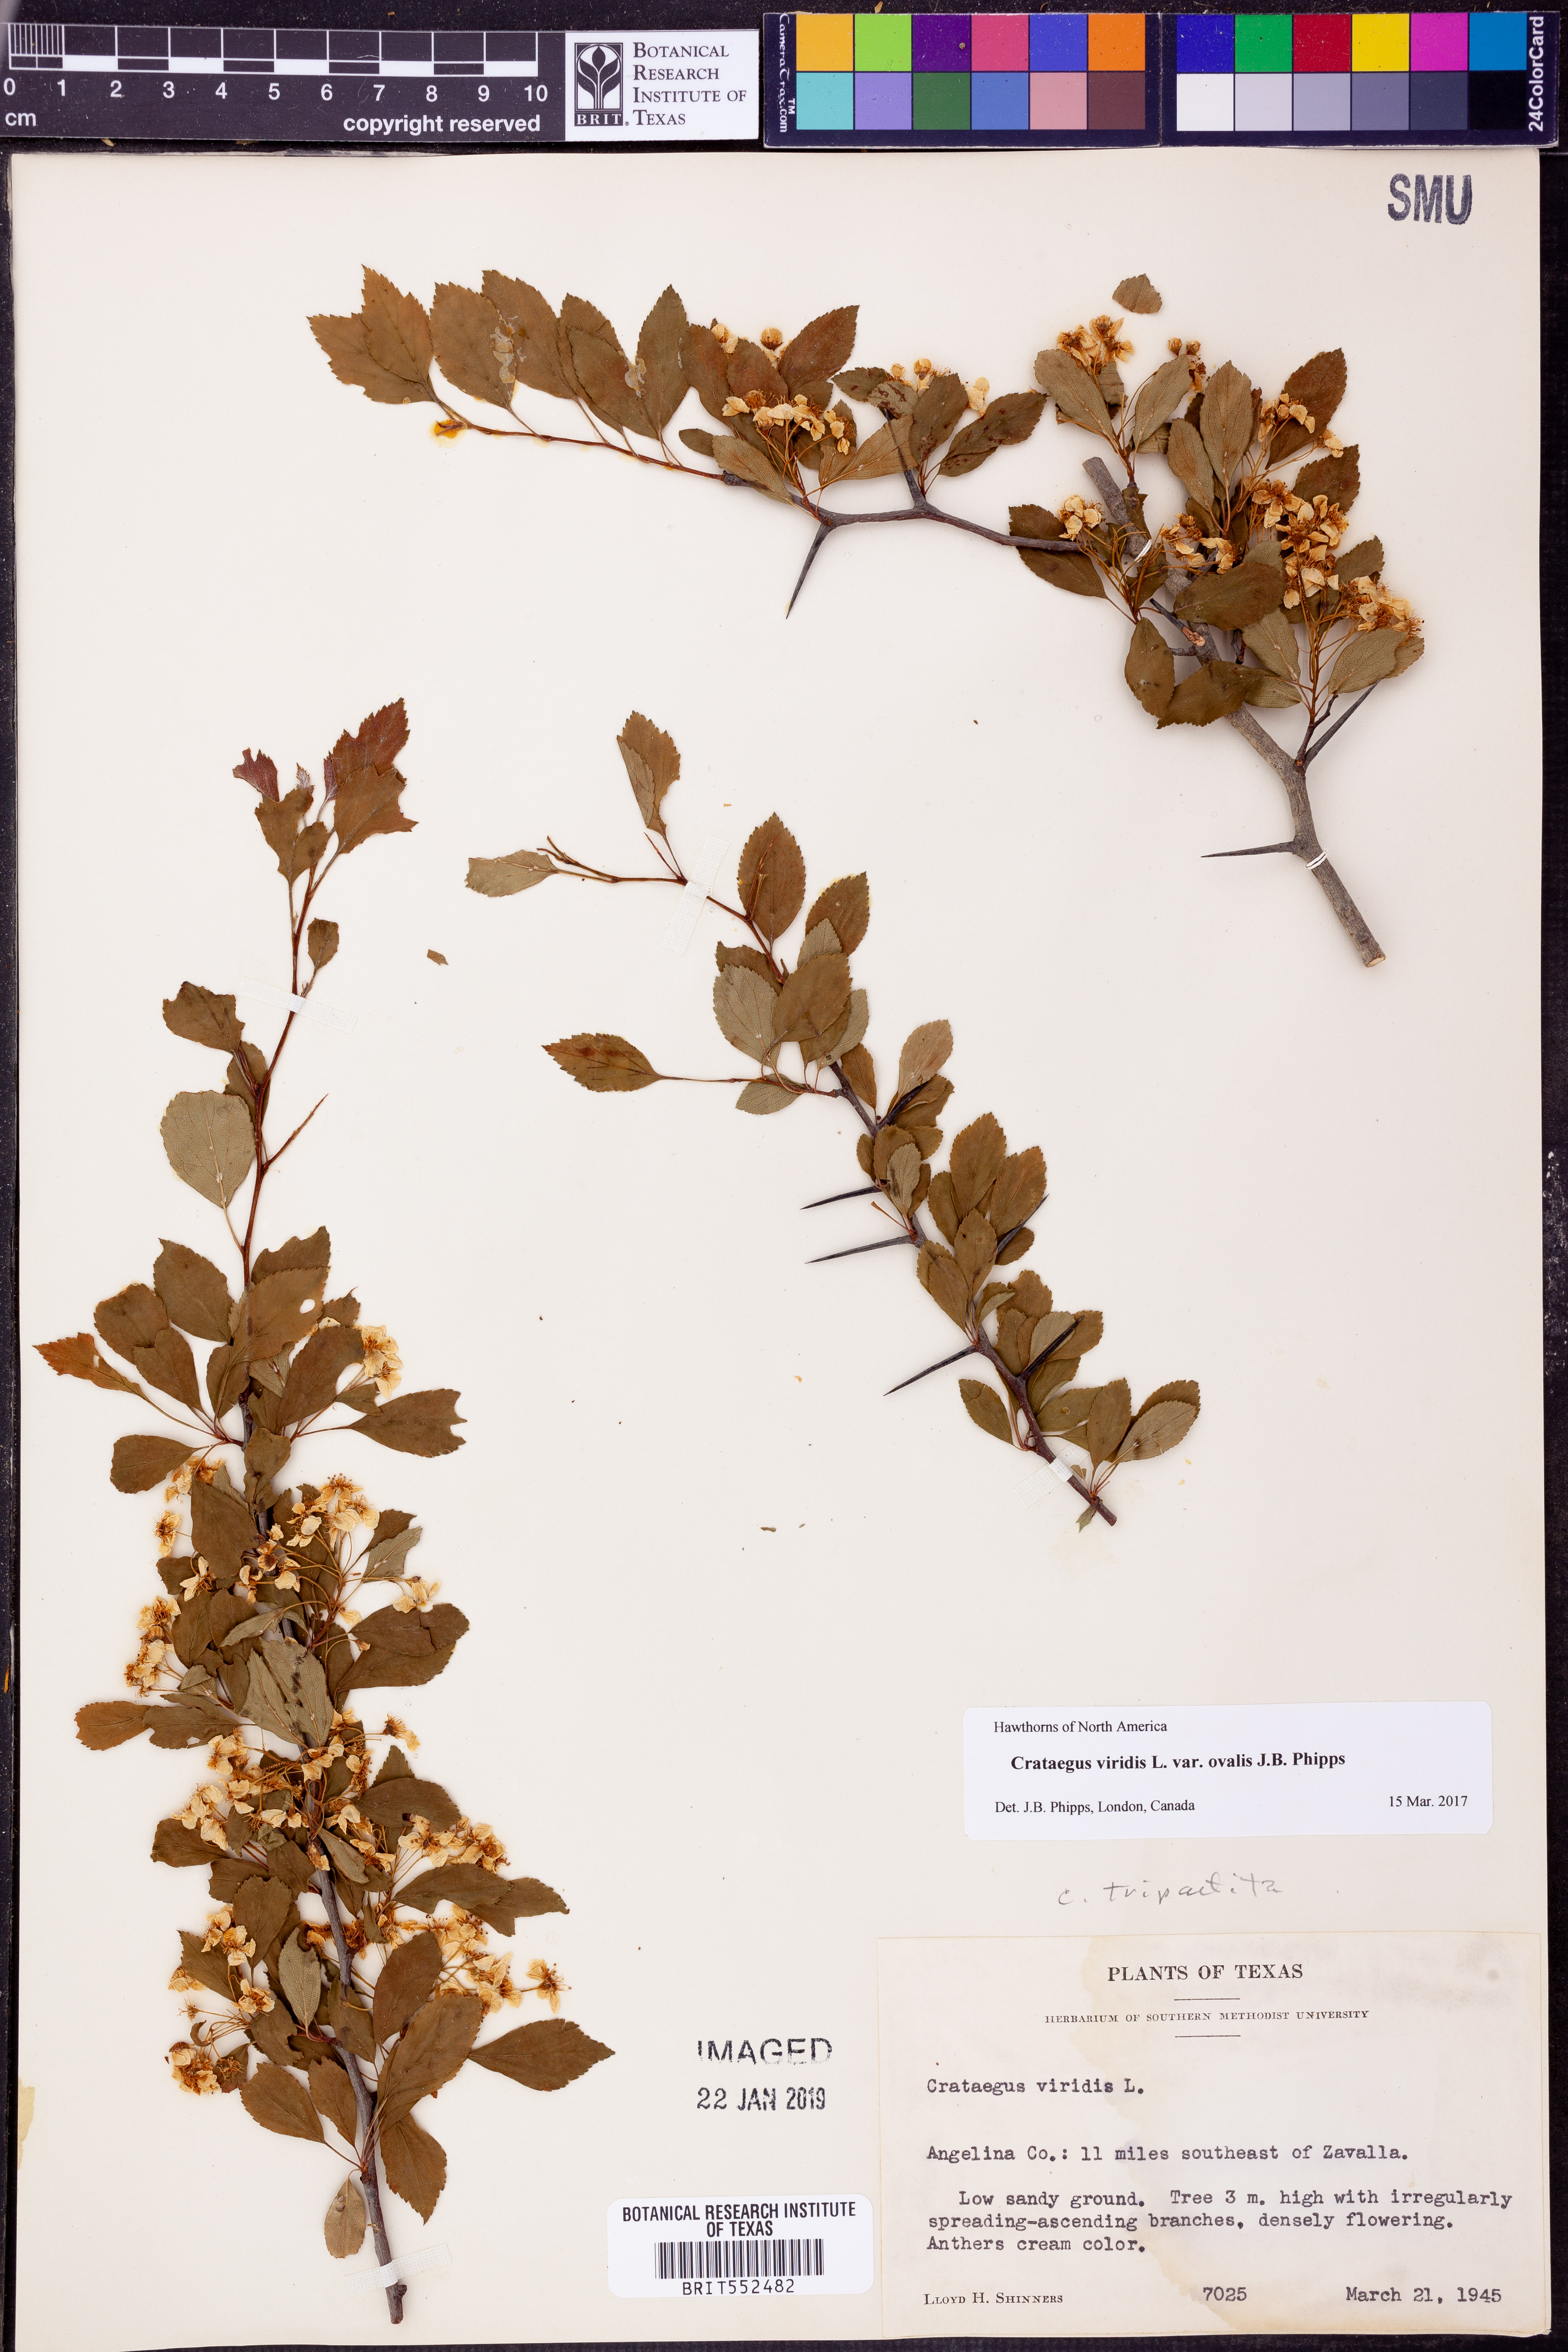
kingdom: Plantae
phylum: Tracheophyta
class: Magnoliopsida
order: Rosales
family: Rosaceae
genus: Crataegus
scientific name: Crataegus viridis
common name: Southernthorn
